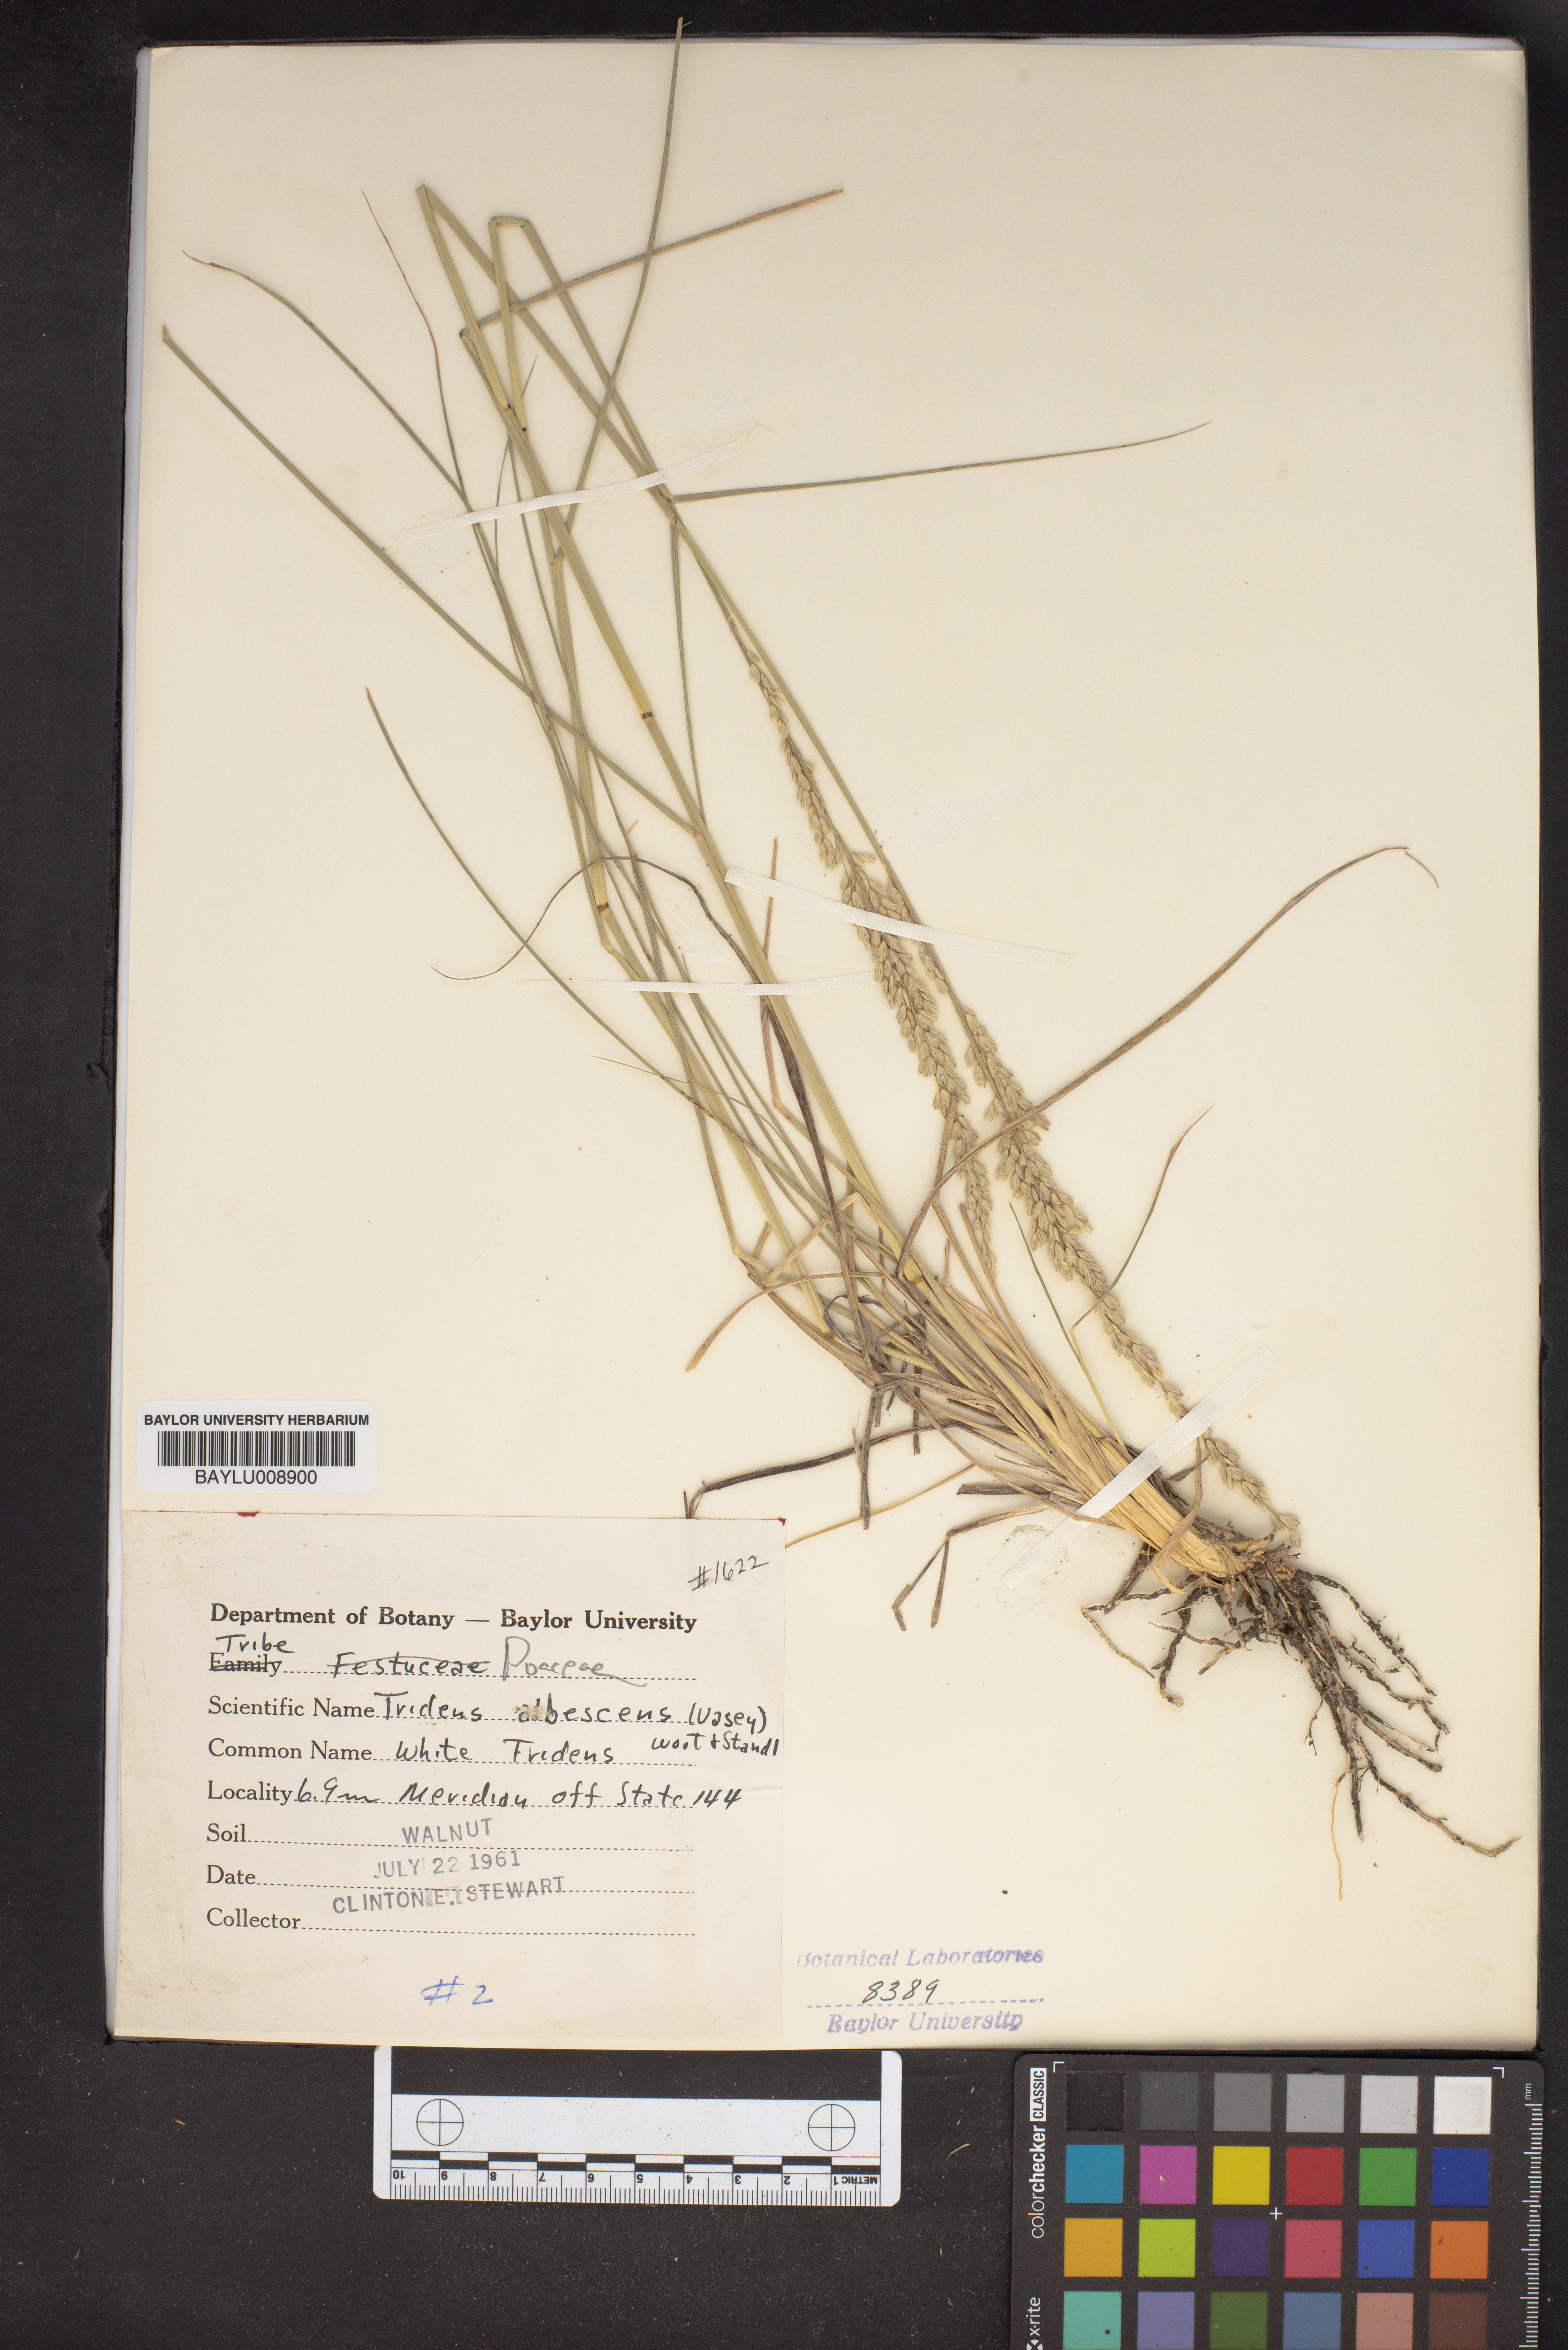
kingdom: Plantae
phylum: Tracheophyta
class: Liliopsida
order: Poales
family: Poaceae
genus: Tridens
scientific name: Tridens albescens
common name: White tridens
